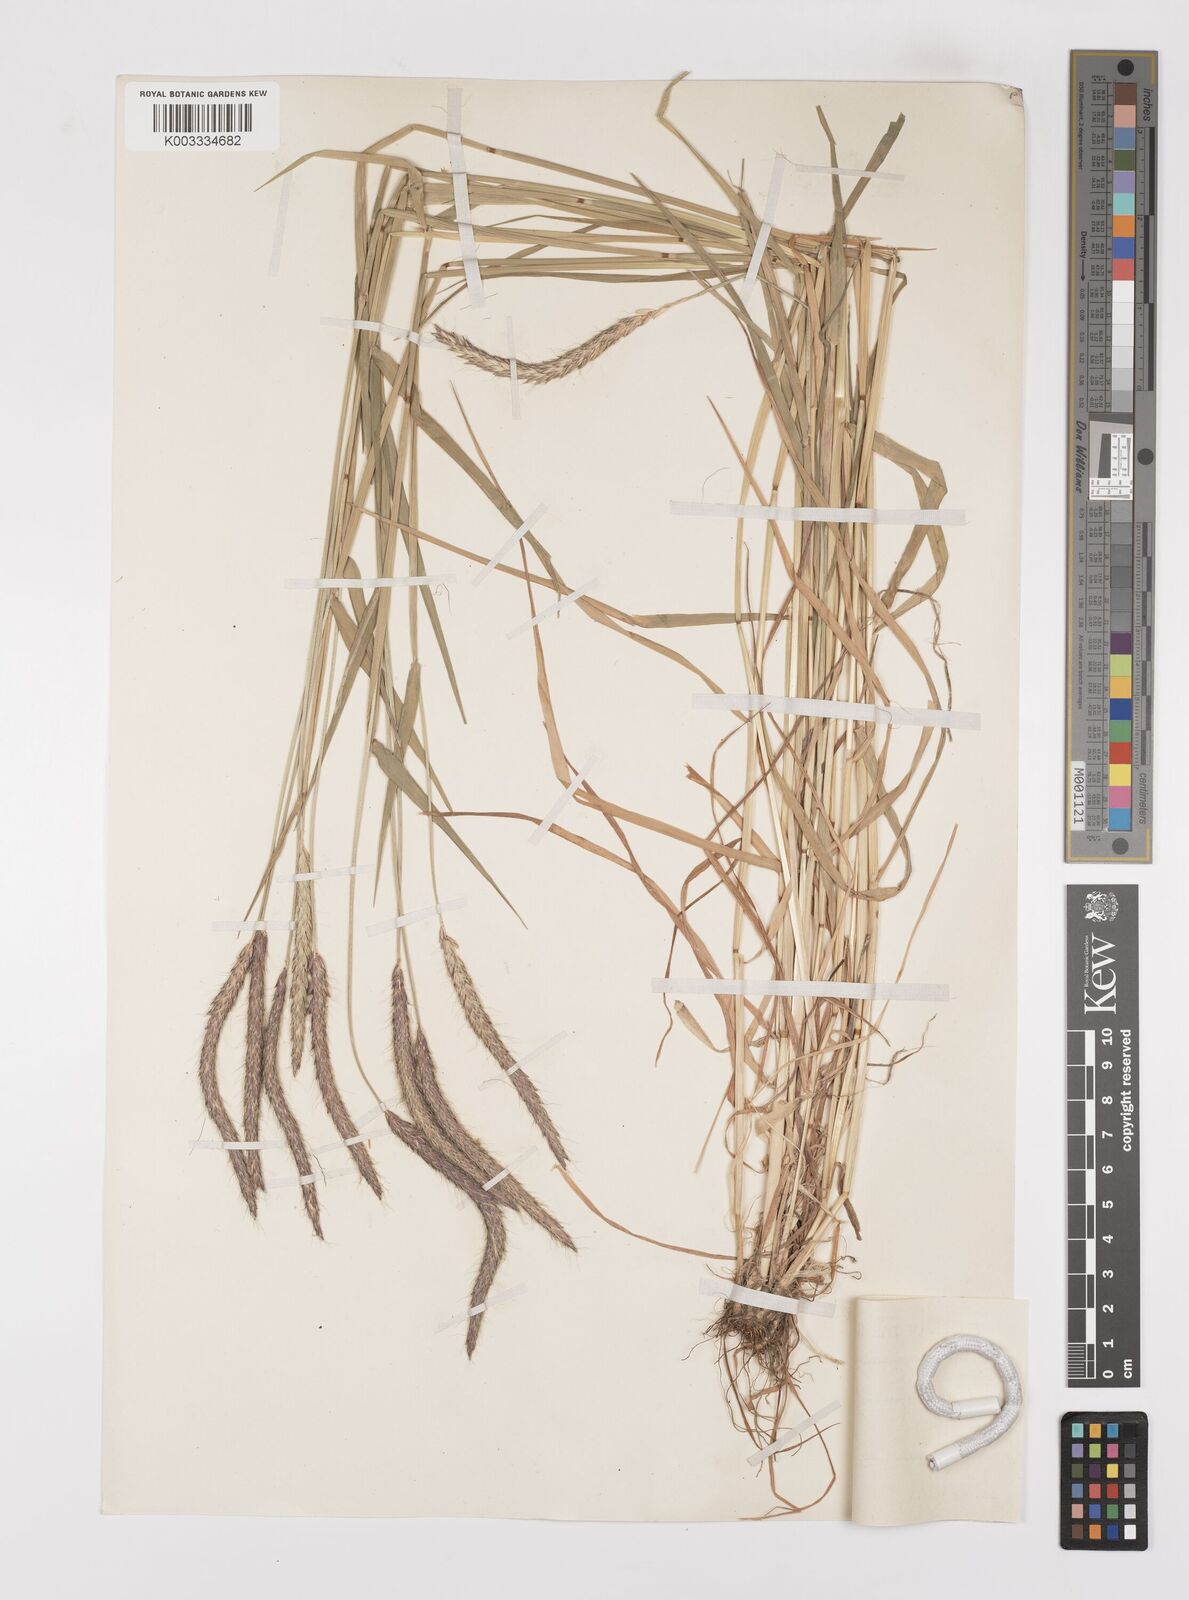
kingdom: Plantae
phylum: Tracheophyta
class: Liliopsida
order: Poales
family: Poaceae
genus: Alopecurus
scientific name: Alopecurus myosuroides
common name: Black-grass
